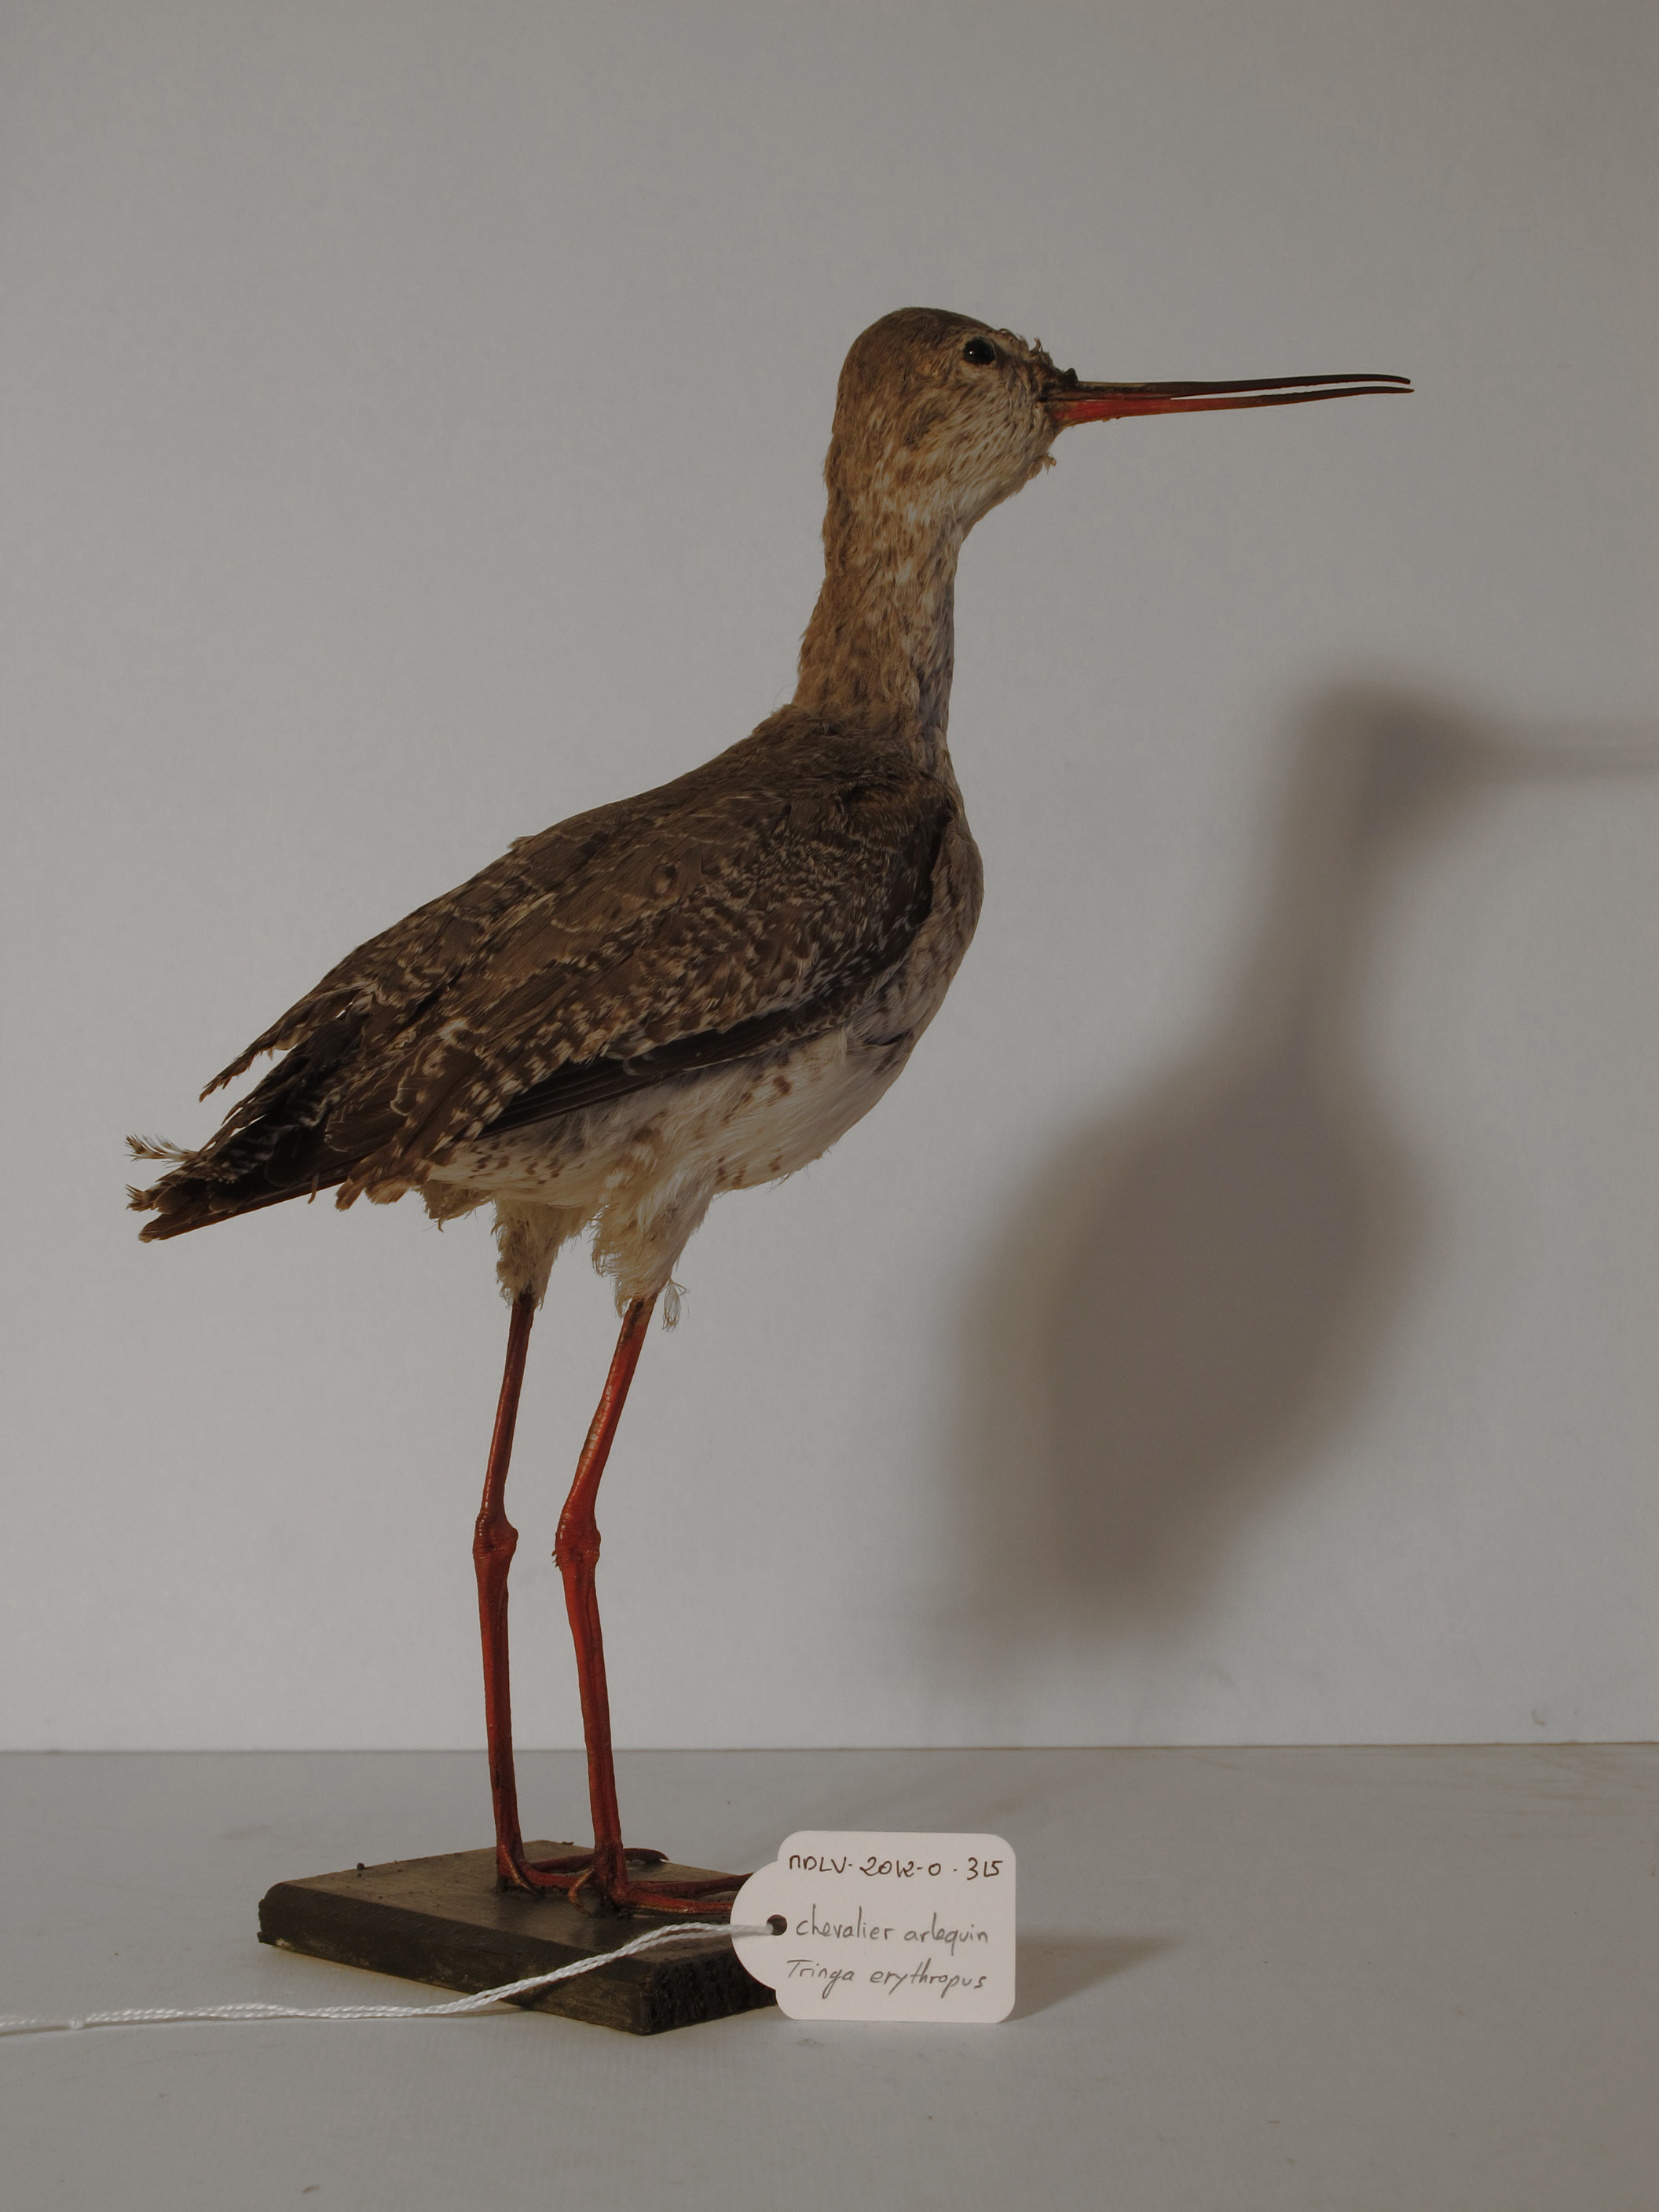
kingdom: Animalia
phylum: Chordata
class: Aves
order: Charadriiformes
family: Scolopacidae
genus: Tringa
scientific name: Tringa erythropus
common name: Spotted Redshank
